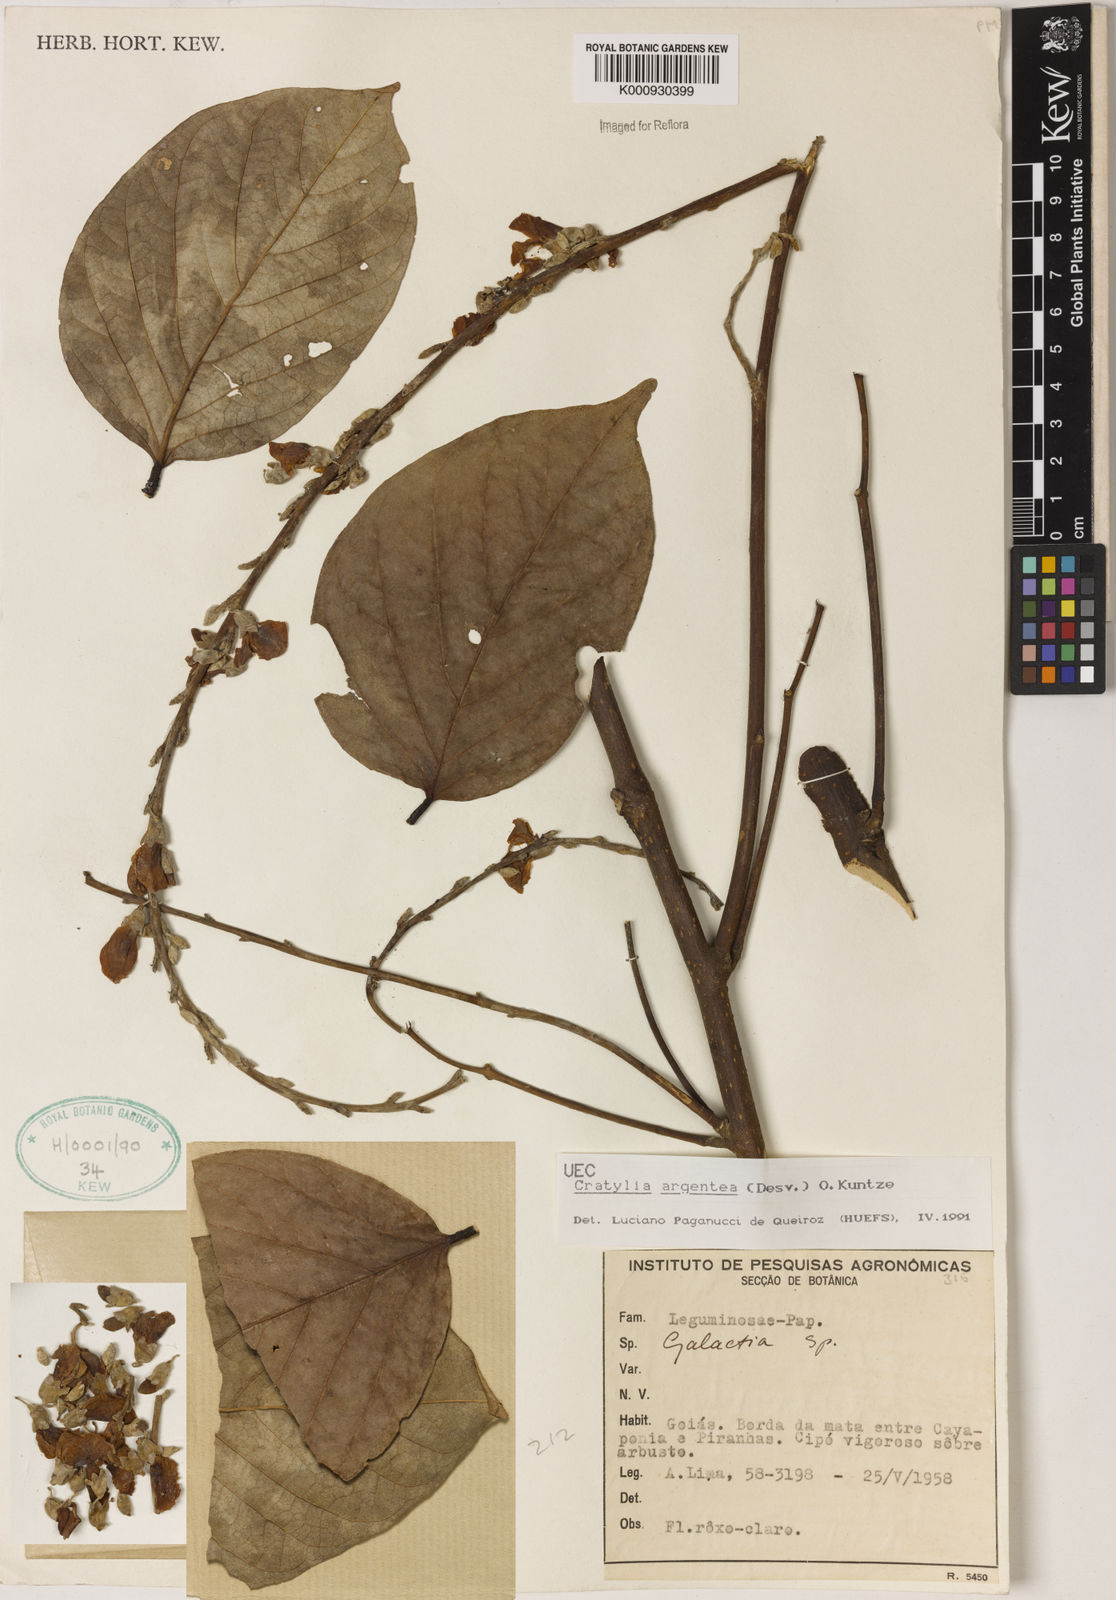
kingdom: Plantae
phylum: Tracheophyta
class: Magnoliopsida
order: Fabales
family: Fabaceae
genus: Cratylia
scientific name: Cratylia argentea
